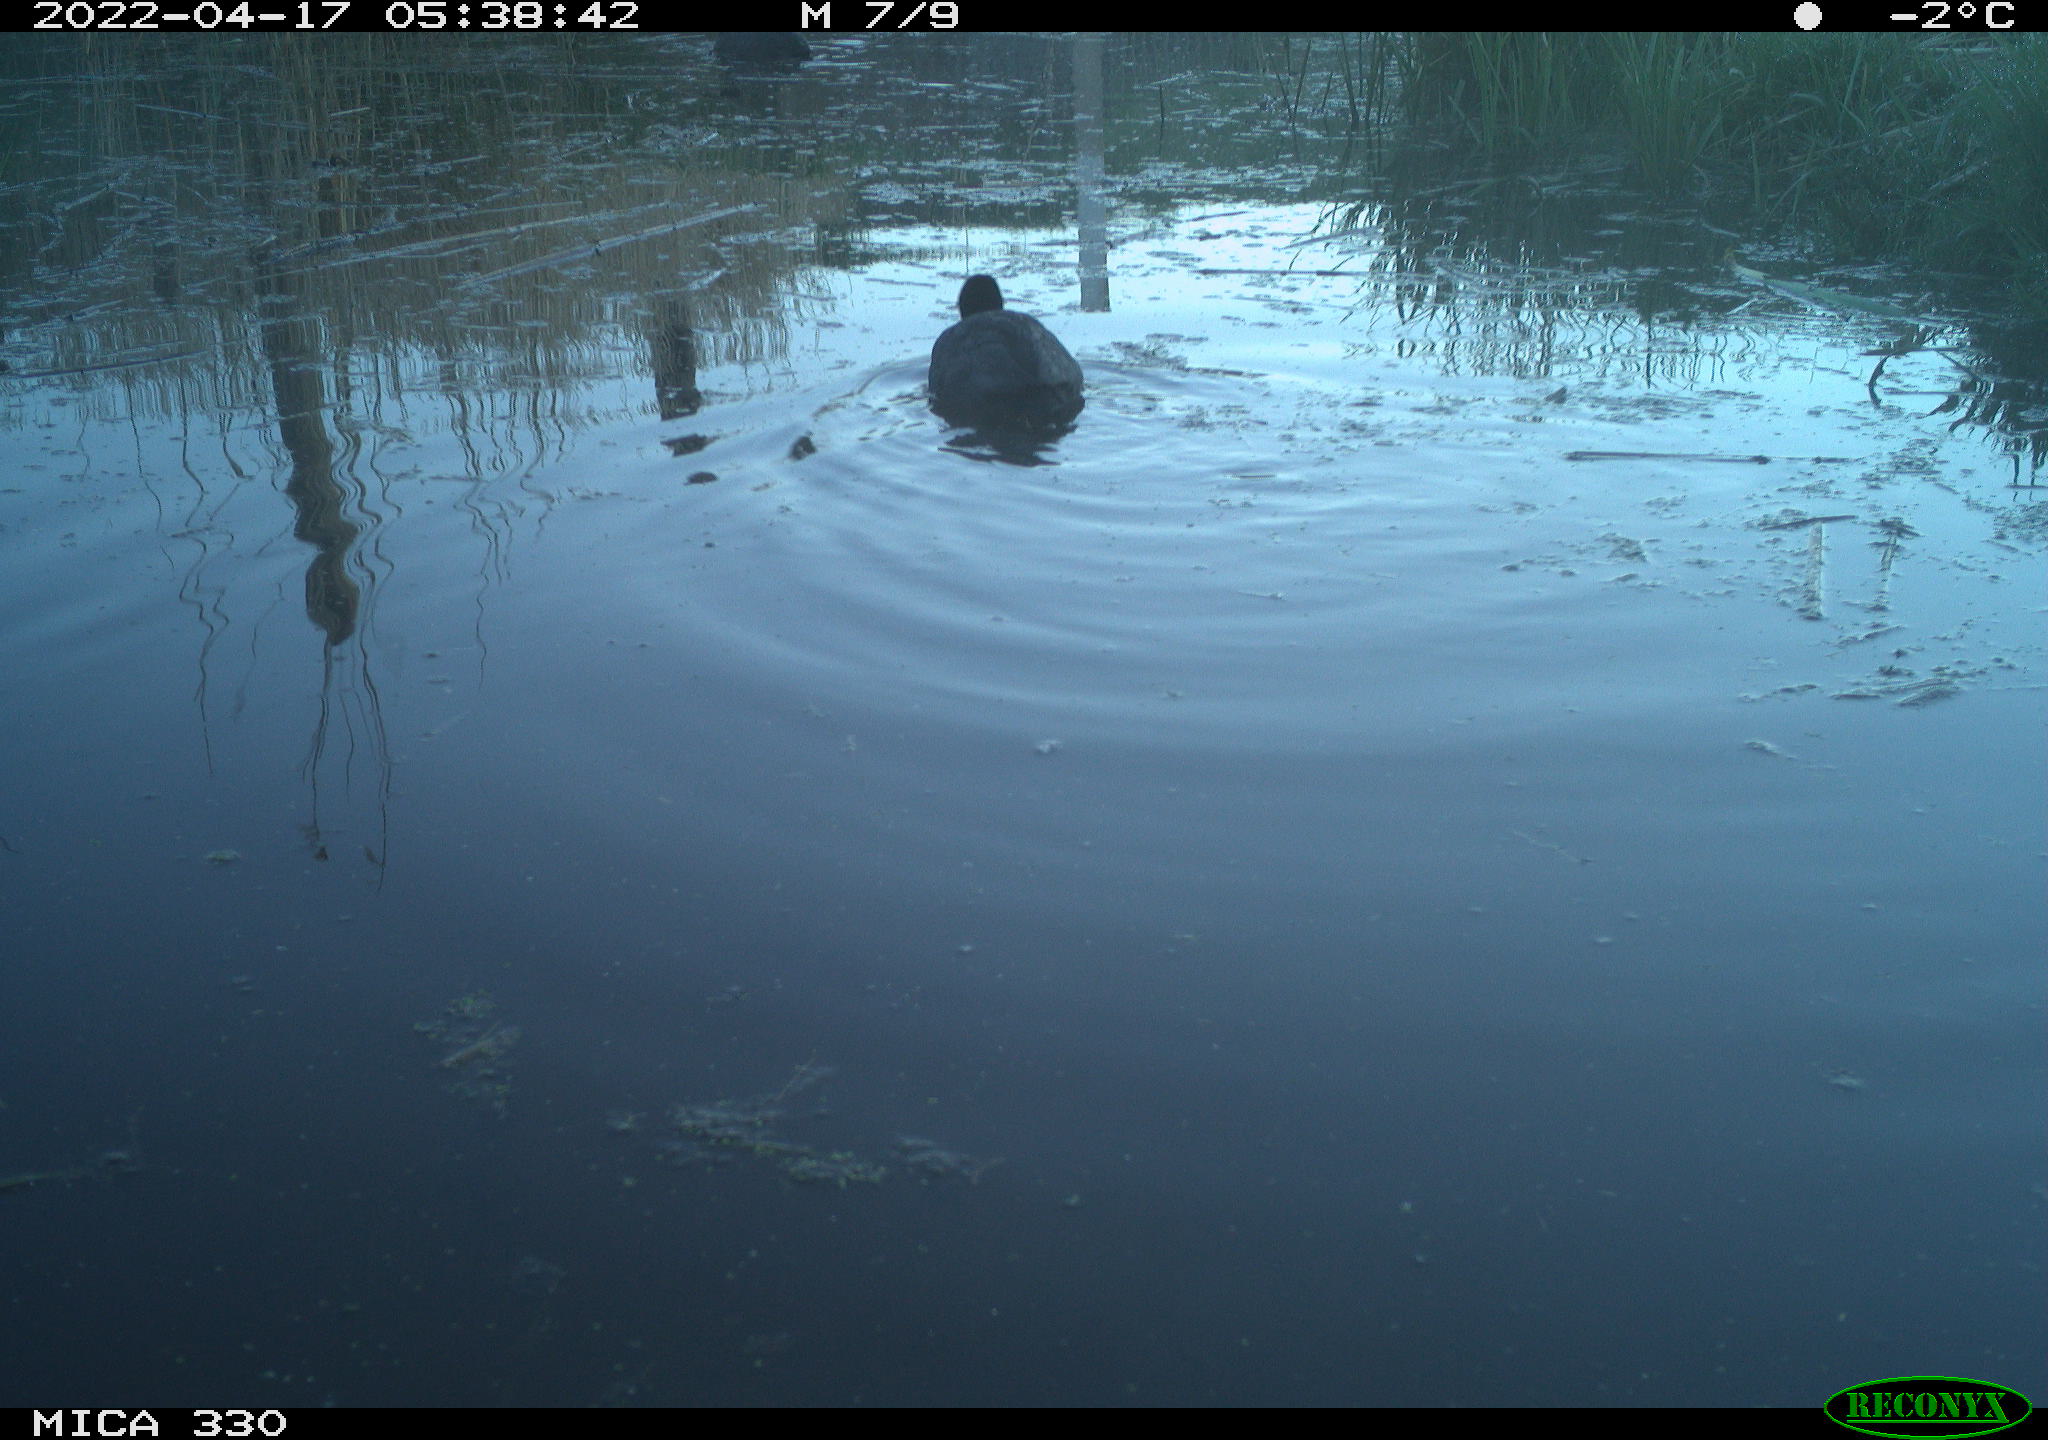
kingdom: Animalia
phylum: Chordata
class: Aves
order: Gruiformes
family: Rallidae
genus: Fulica
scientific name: Fulica atra
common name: Eurasian coot
